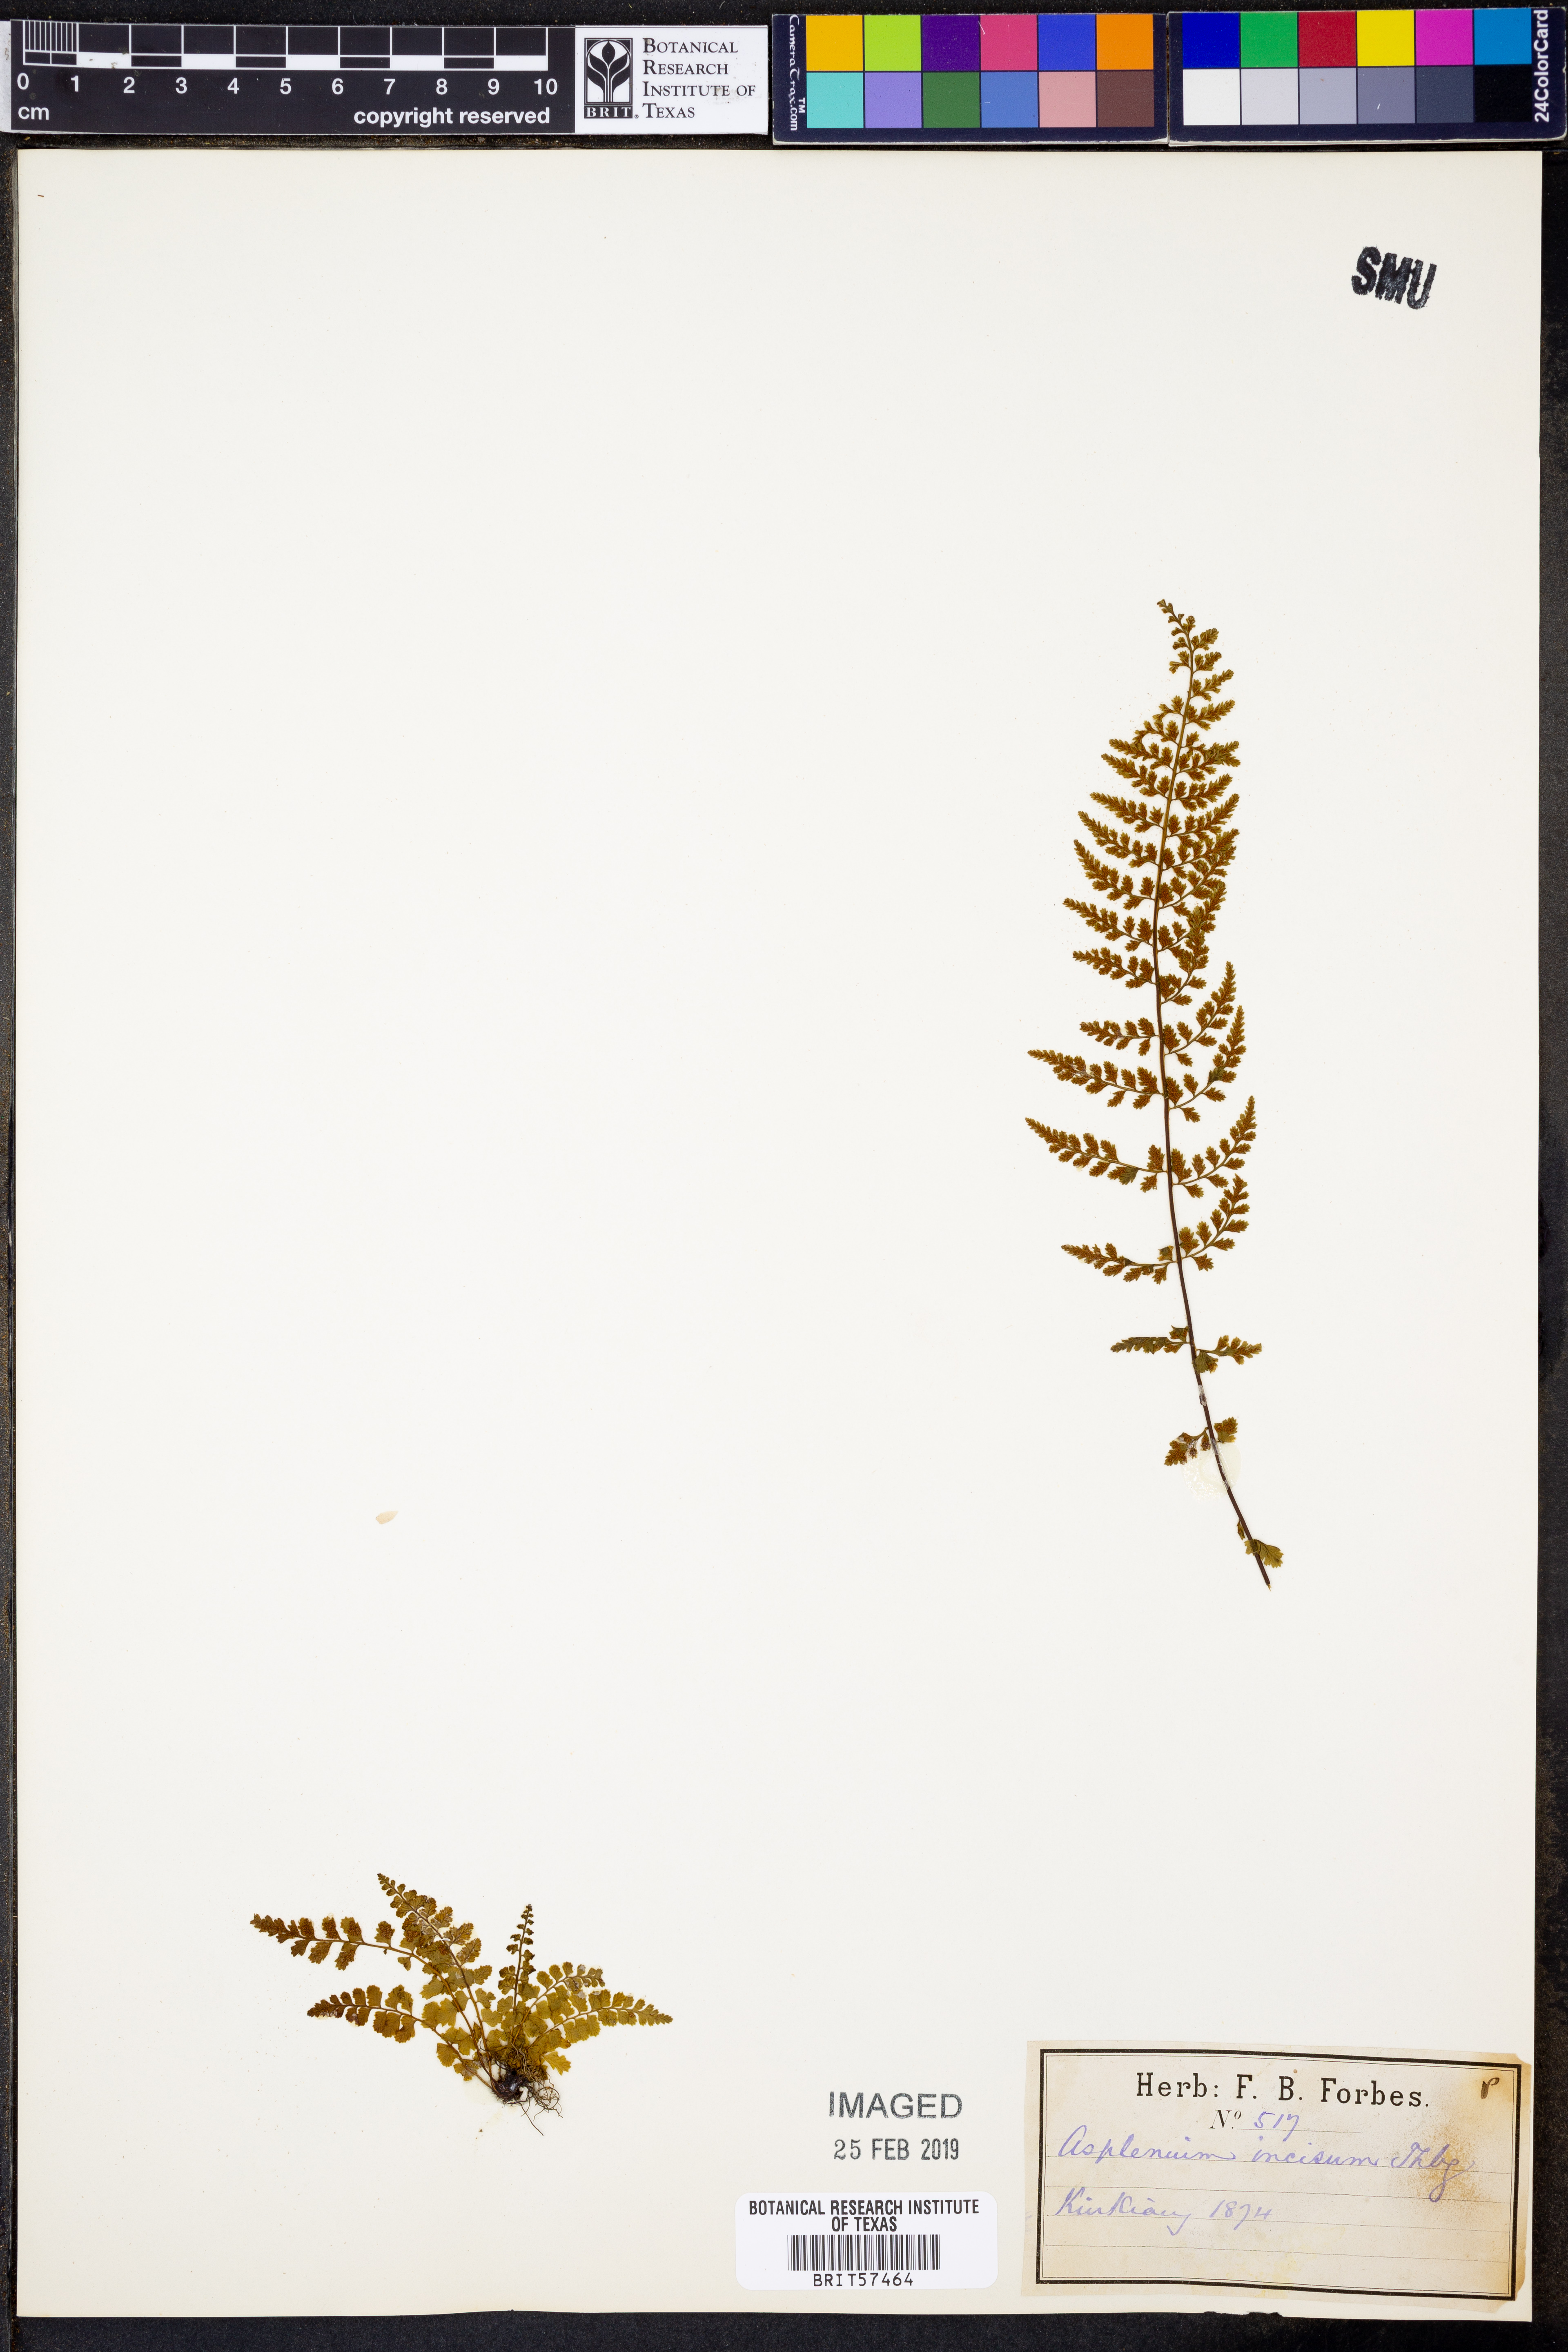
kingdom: Plantae
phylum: Tracheophyta
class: Polypodiopsida
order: Polypodiales
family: Aspleniaceae
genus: Asplenium
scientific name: Asplenium incisum
